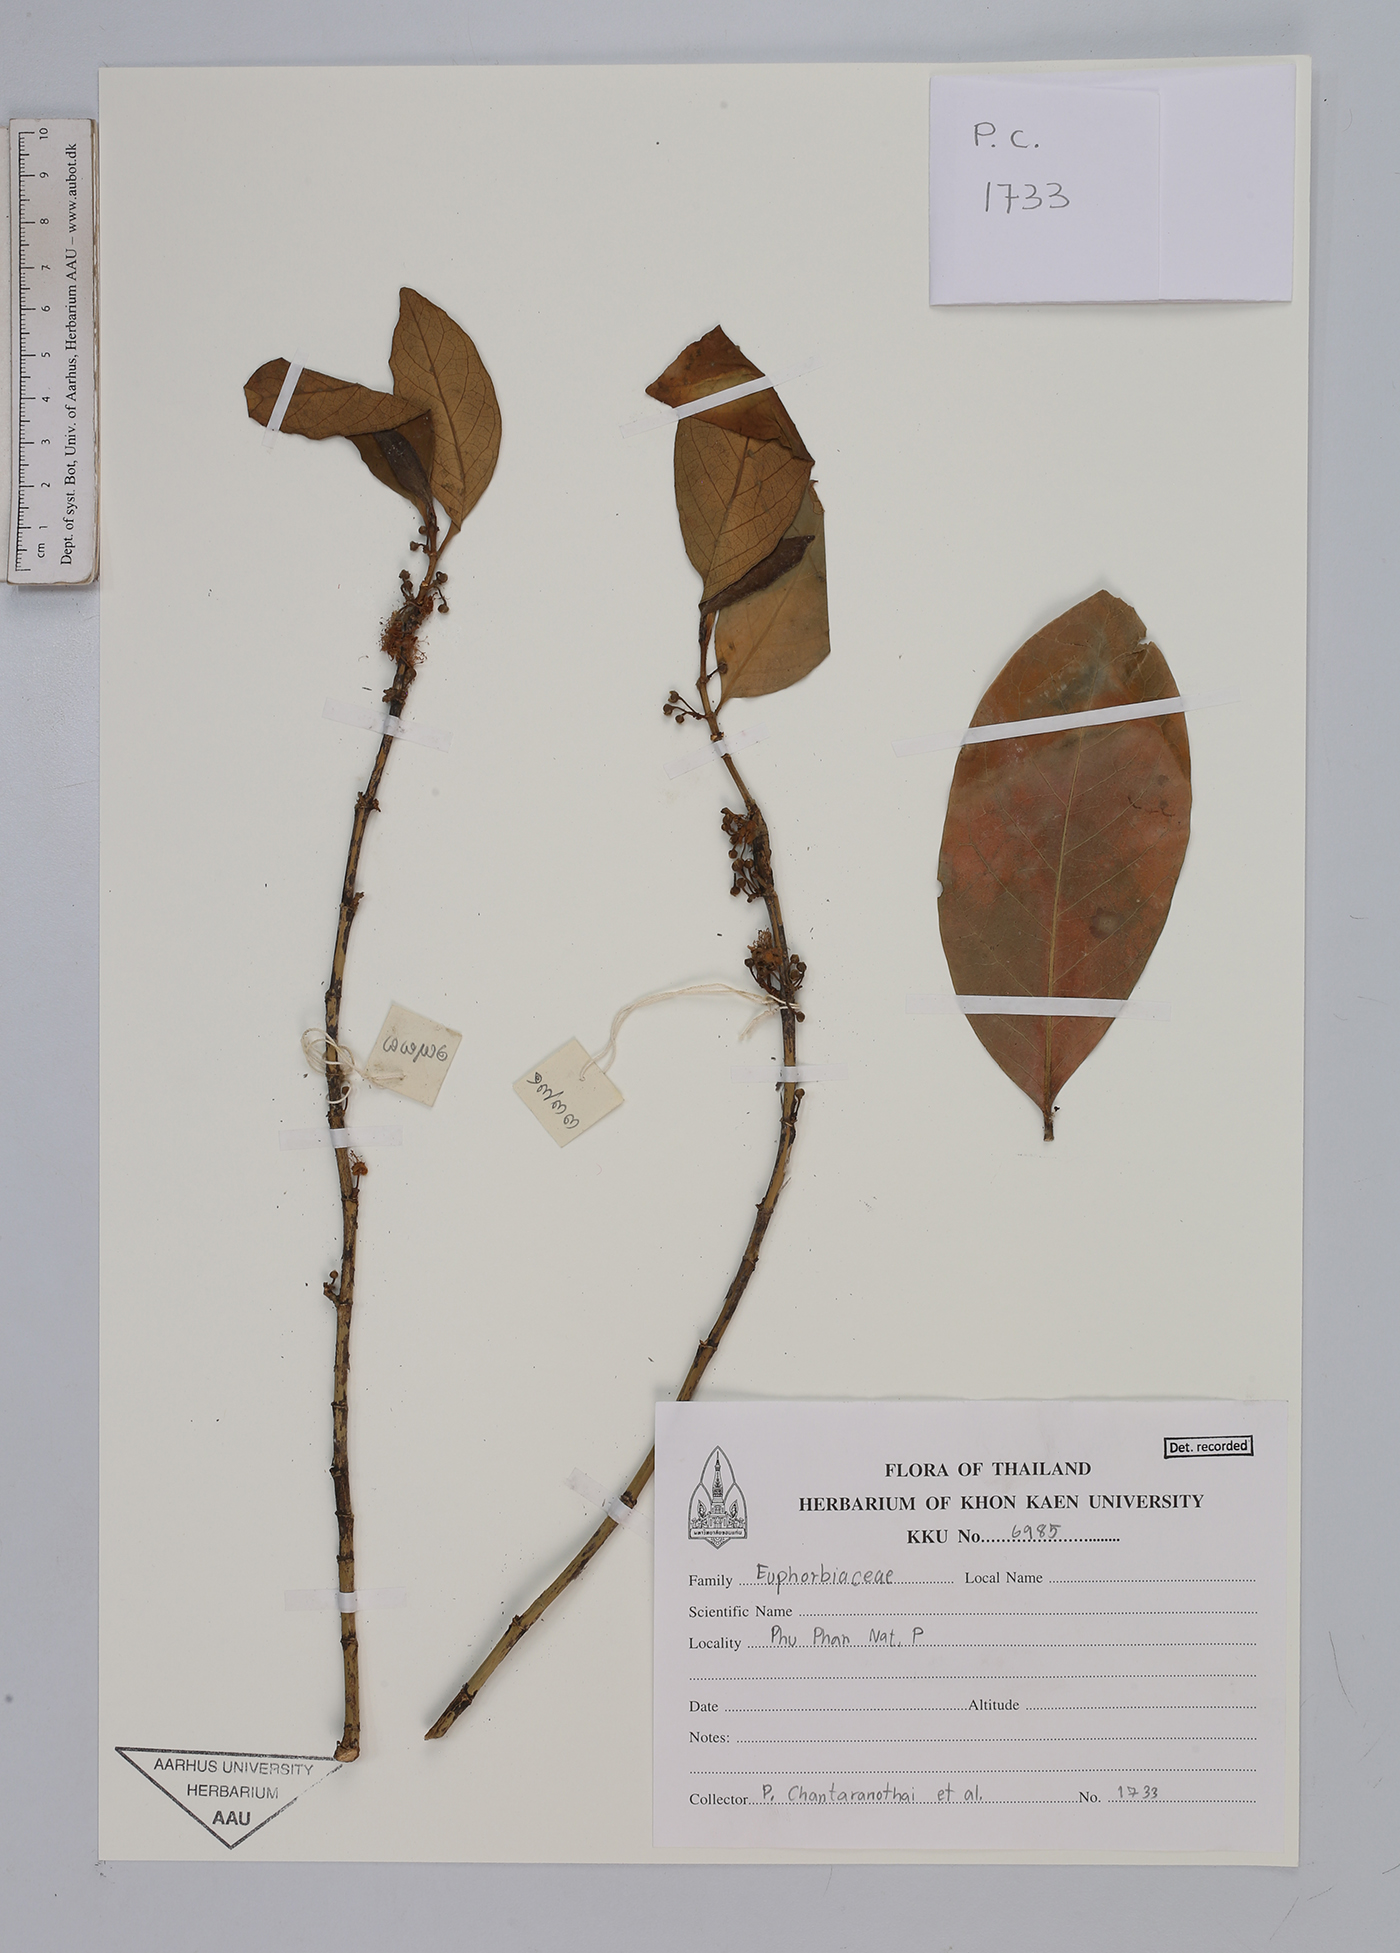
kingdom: Plantae
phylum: Tracheophyta
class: Magnoliopsida
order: Malpighiales
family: Euphorbiaceae
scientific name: Euphorbiaceae
